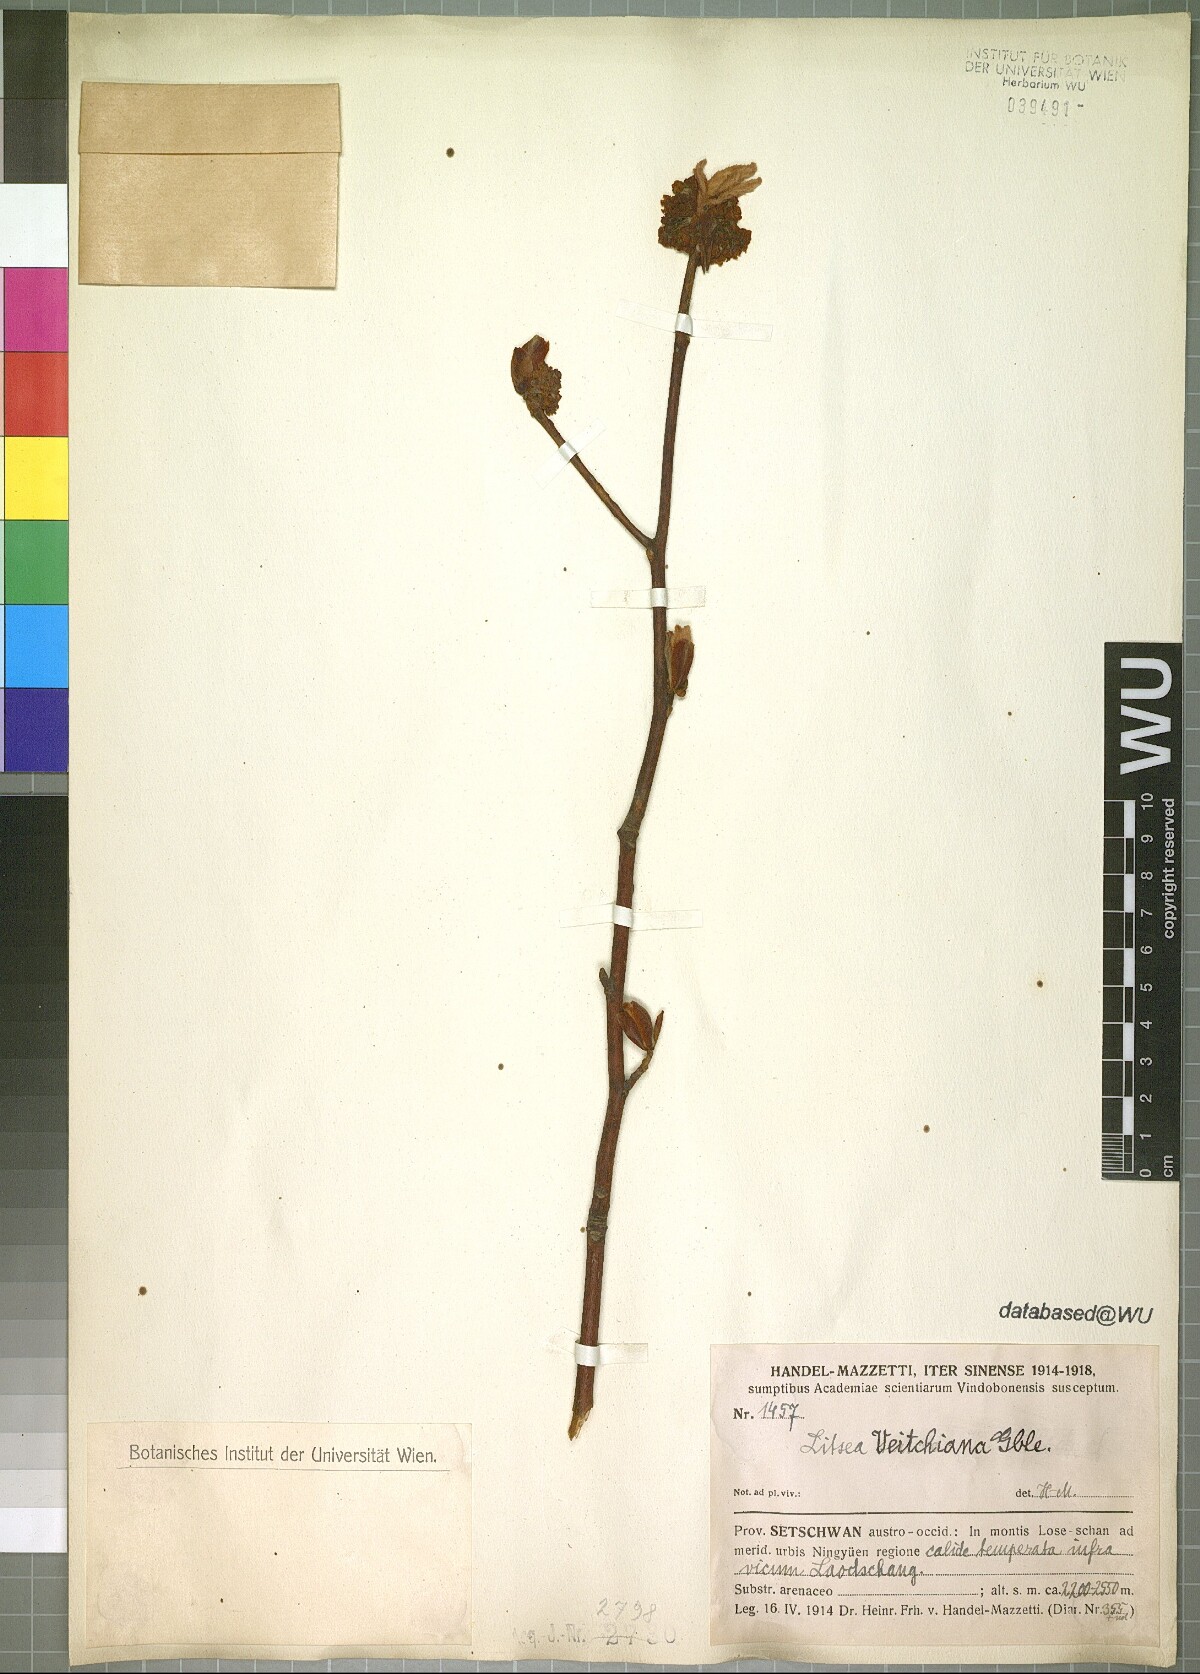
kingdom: Plantae
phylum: Tracheophyta
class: Magnoliopsida
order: Laurales
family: Lauraceae
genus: Litsea
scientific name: Litsea veitchiana
